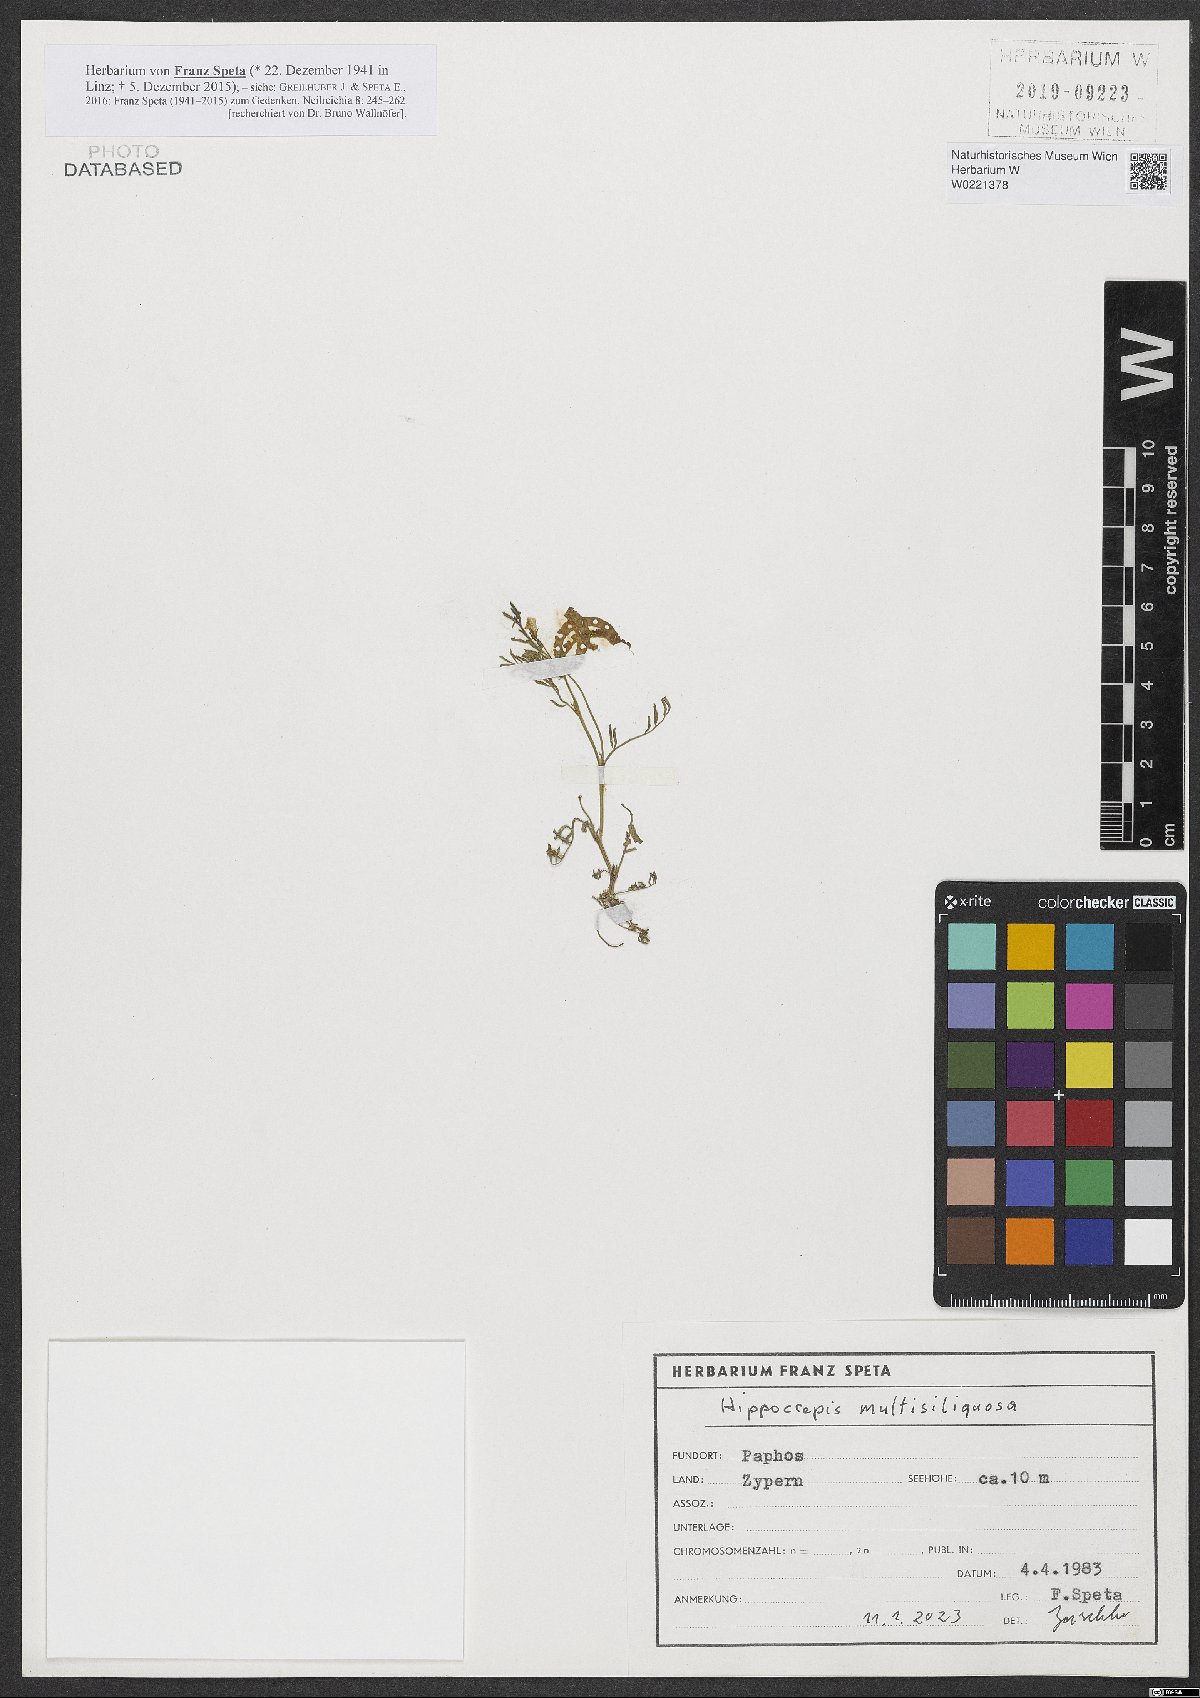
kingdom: Plantae
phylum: Tracheophyta
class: Magnoliopsida
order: Fabales
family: Fabaceae
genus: Hippocrepis
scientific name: Hippocrepis multisiliquosa
